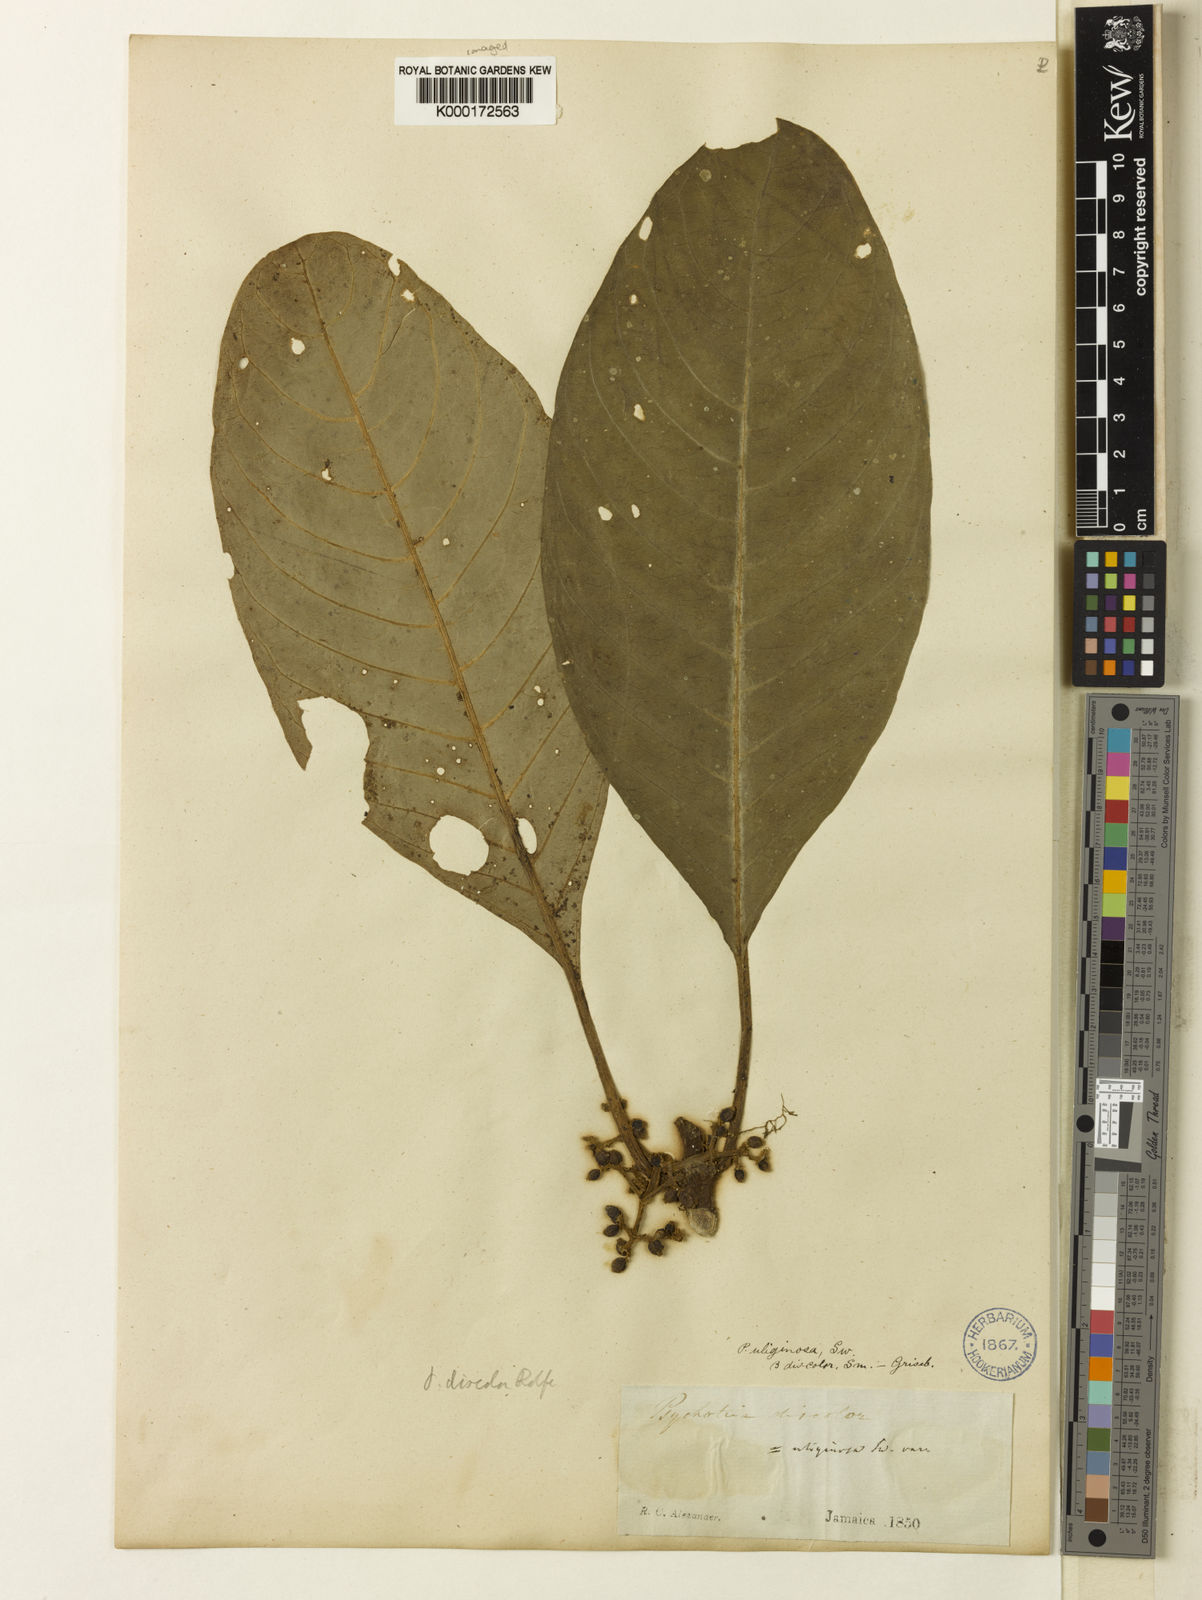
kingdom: Plantae
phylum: Tracheophyta
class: Magnoliopsida
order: Gentianales
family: Rubiaceae
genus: Notopleura
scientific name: Notopleura discolor
